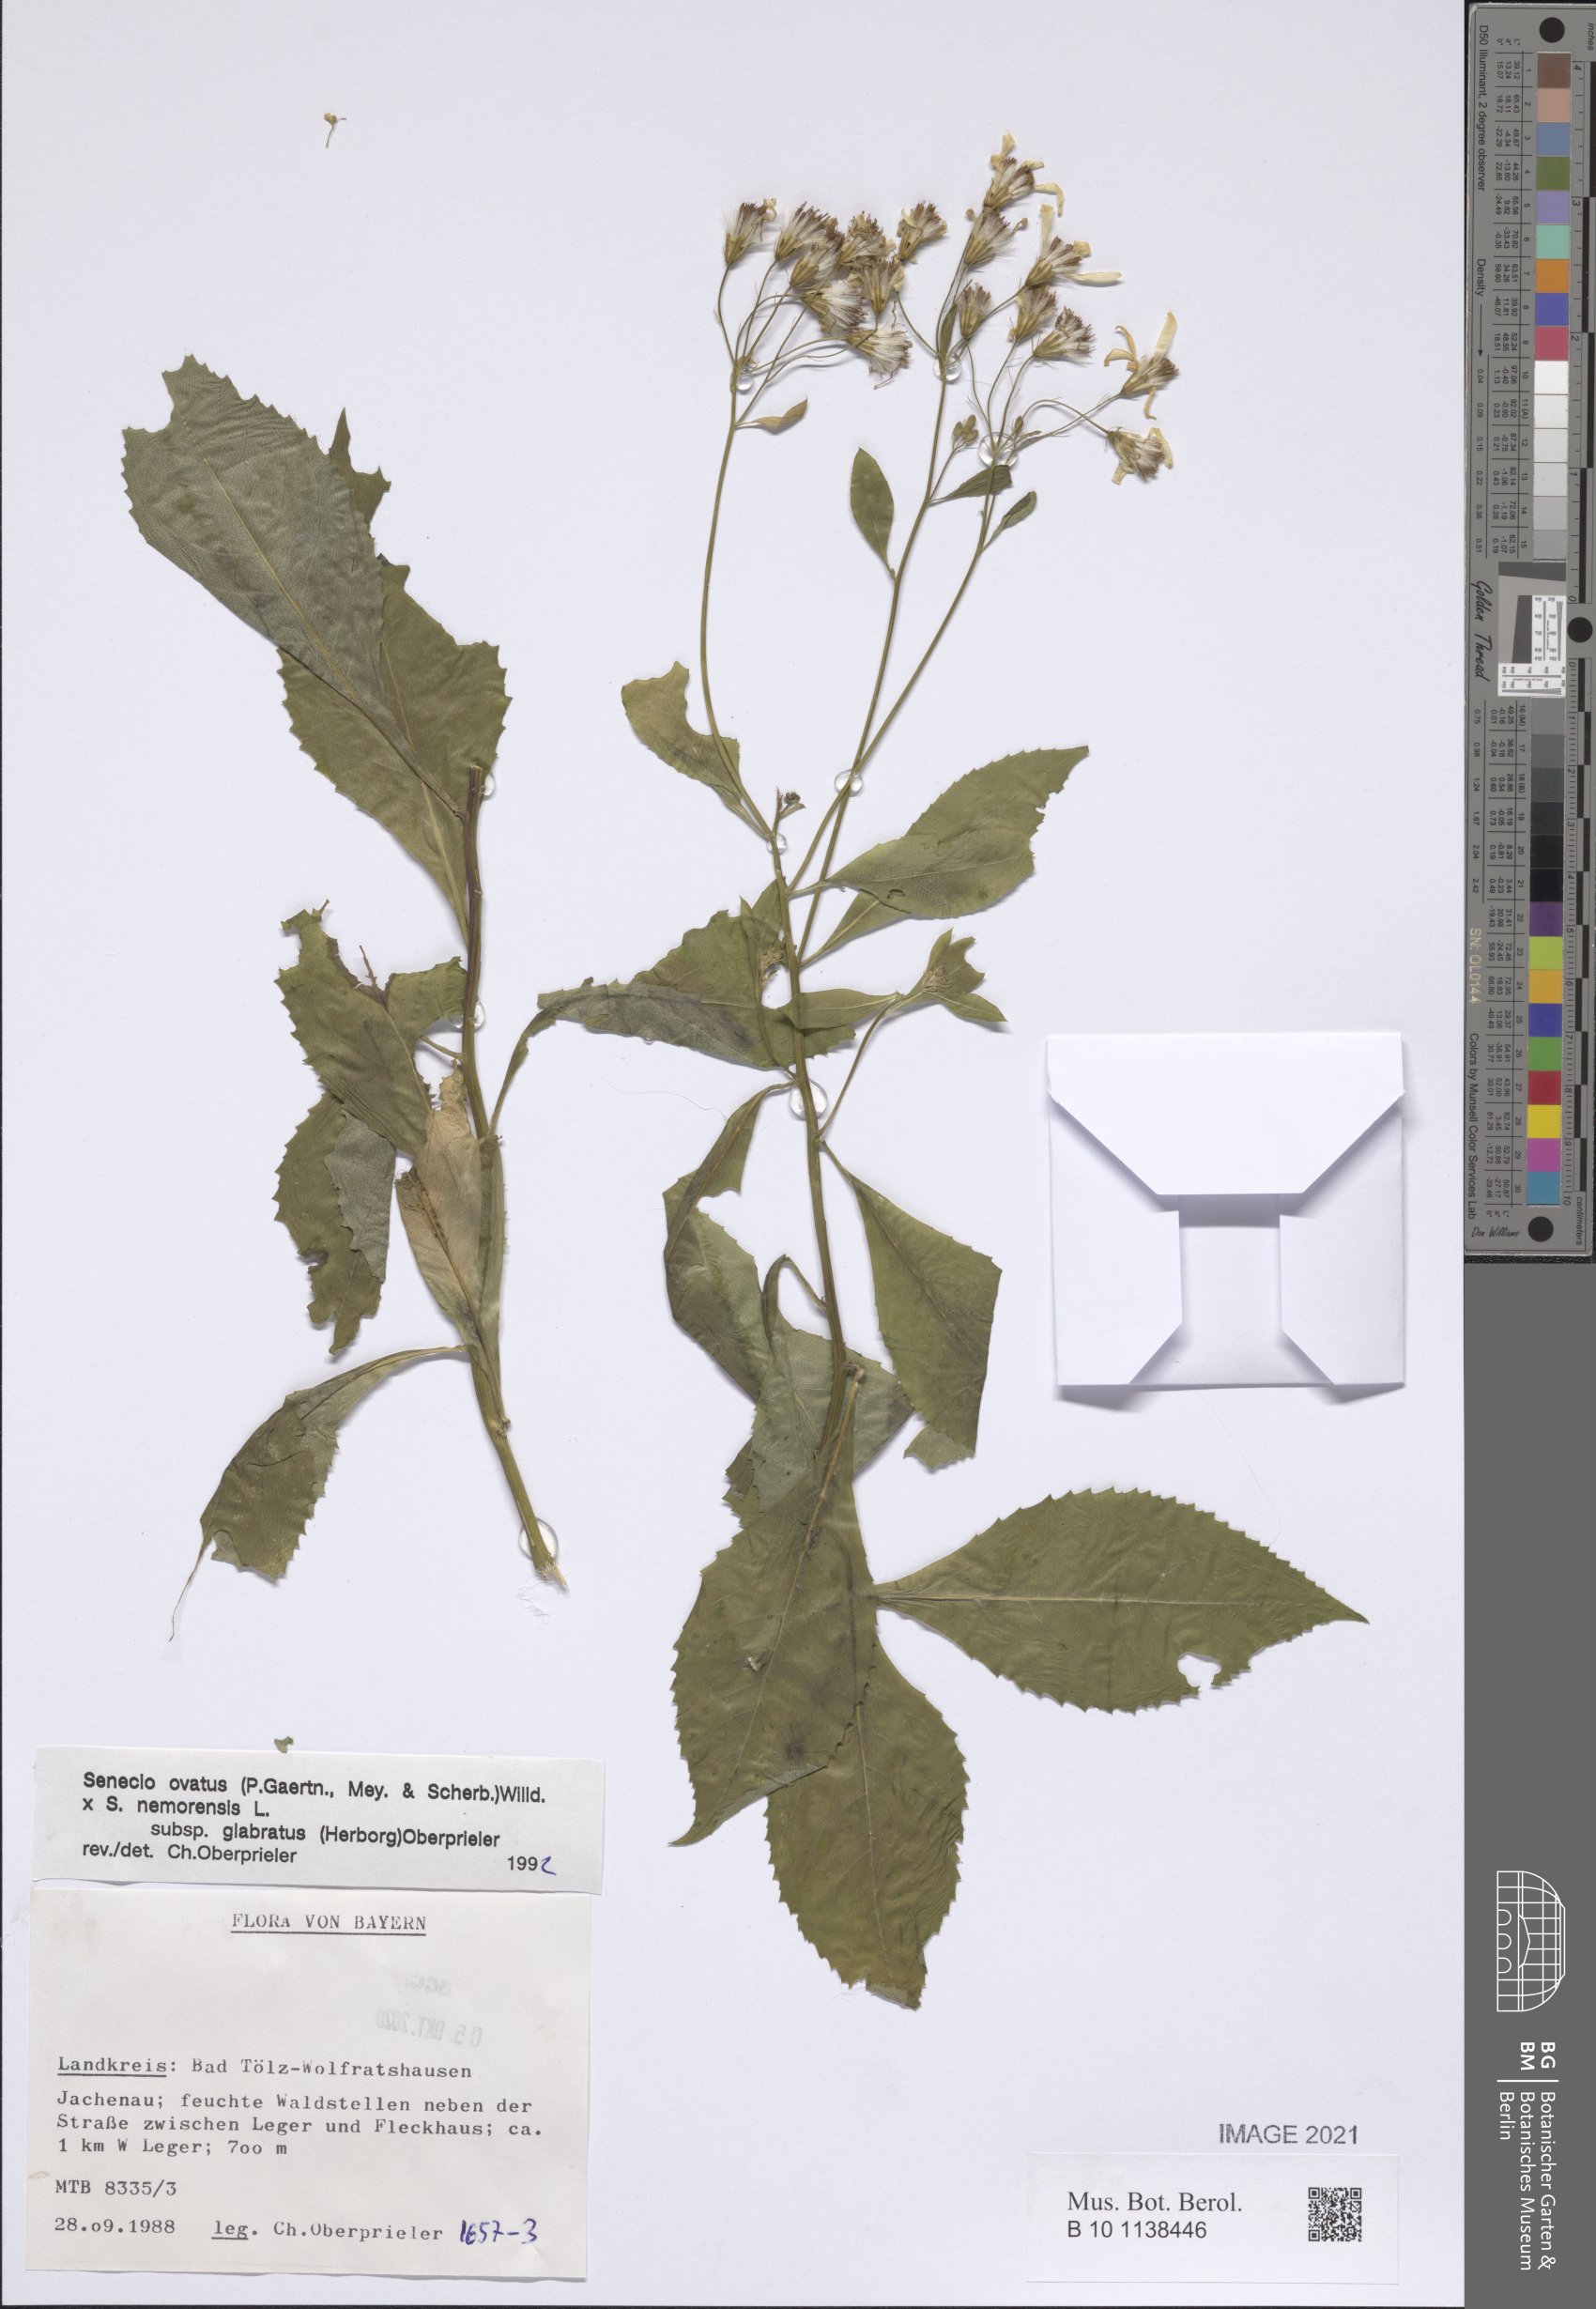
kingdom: Plantae
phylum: Tracheophyta
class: Magnoliopsida
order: Asterales
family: Asteraceae
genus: Senecio
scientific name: Senecio ovatus
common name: Wood ragwort
